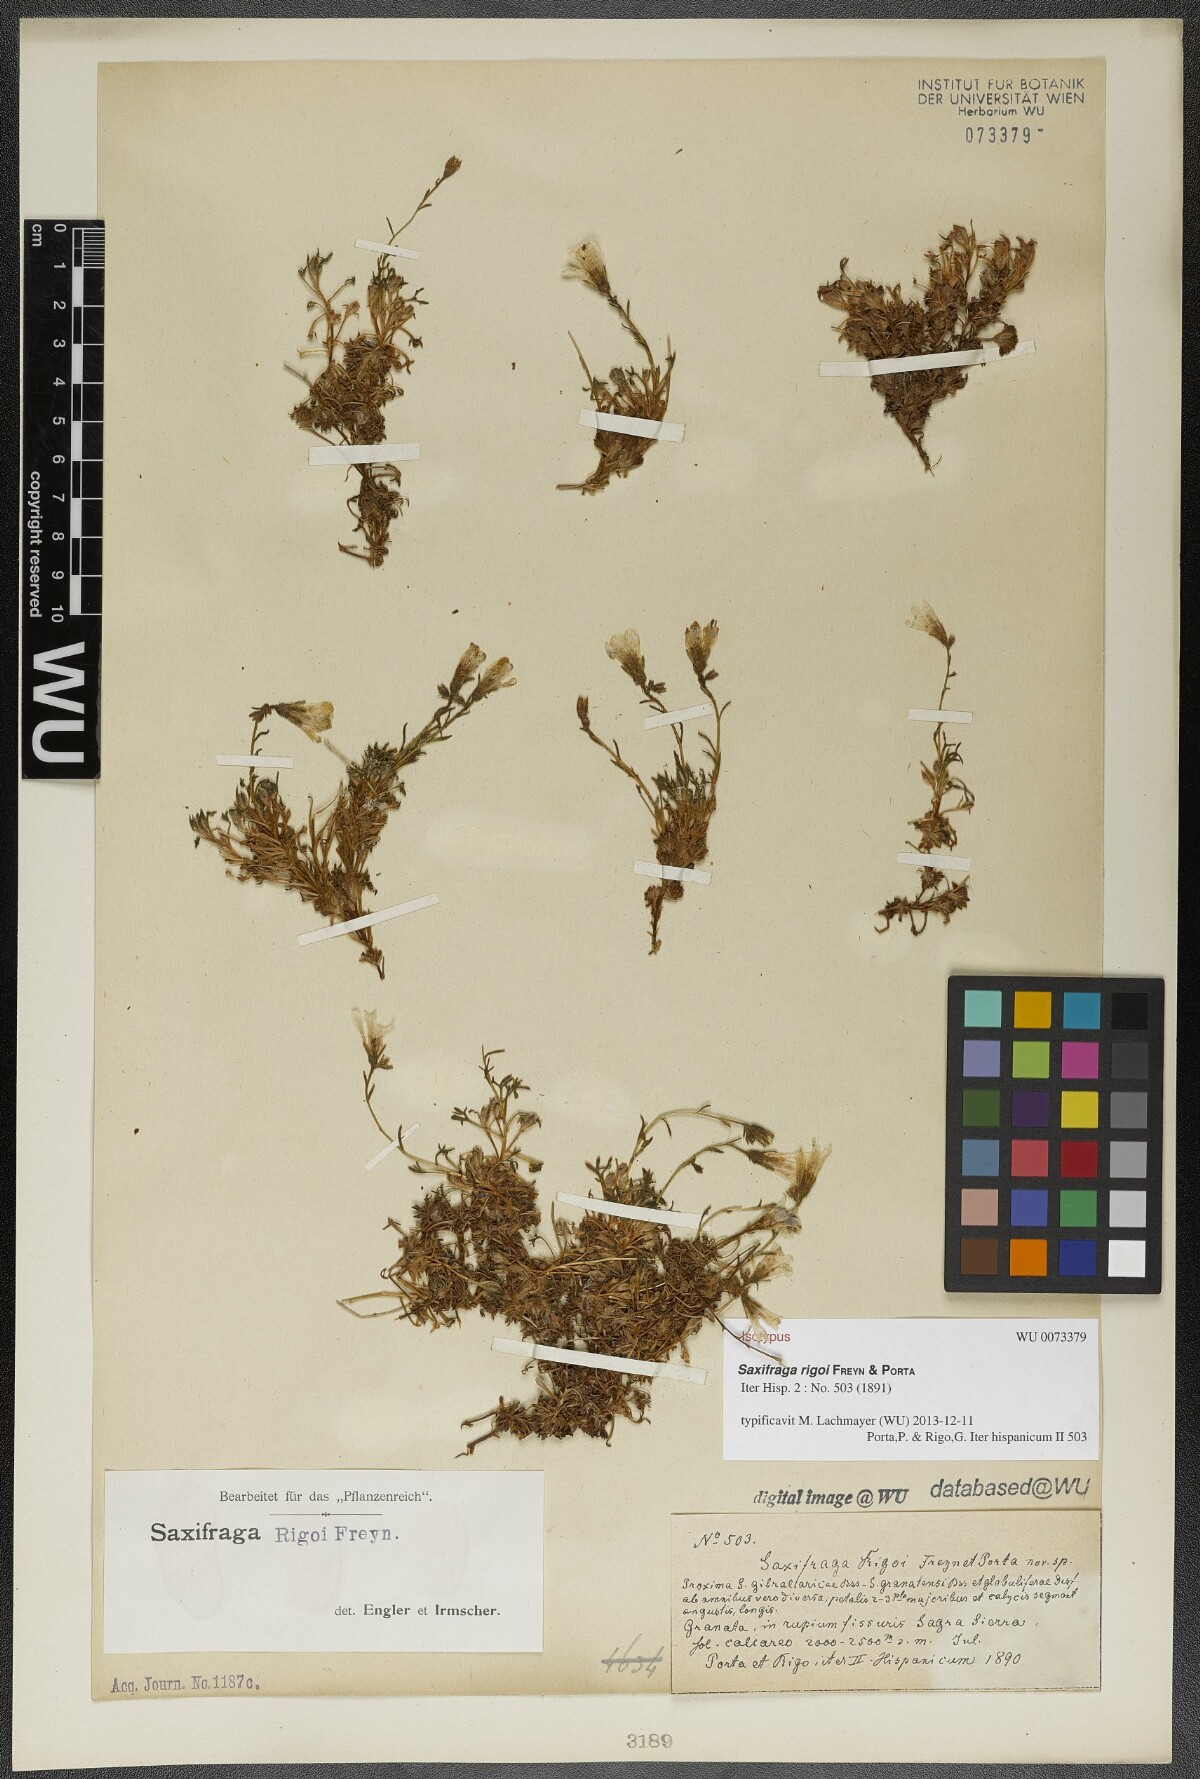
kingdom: Plantae
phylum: Tracheophyta
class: Magnoliopsida
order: Saxifragales
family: Saxifragaceae
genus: Saxifraga
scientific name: Saxifraga rigoi
